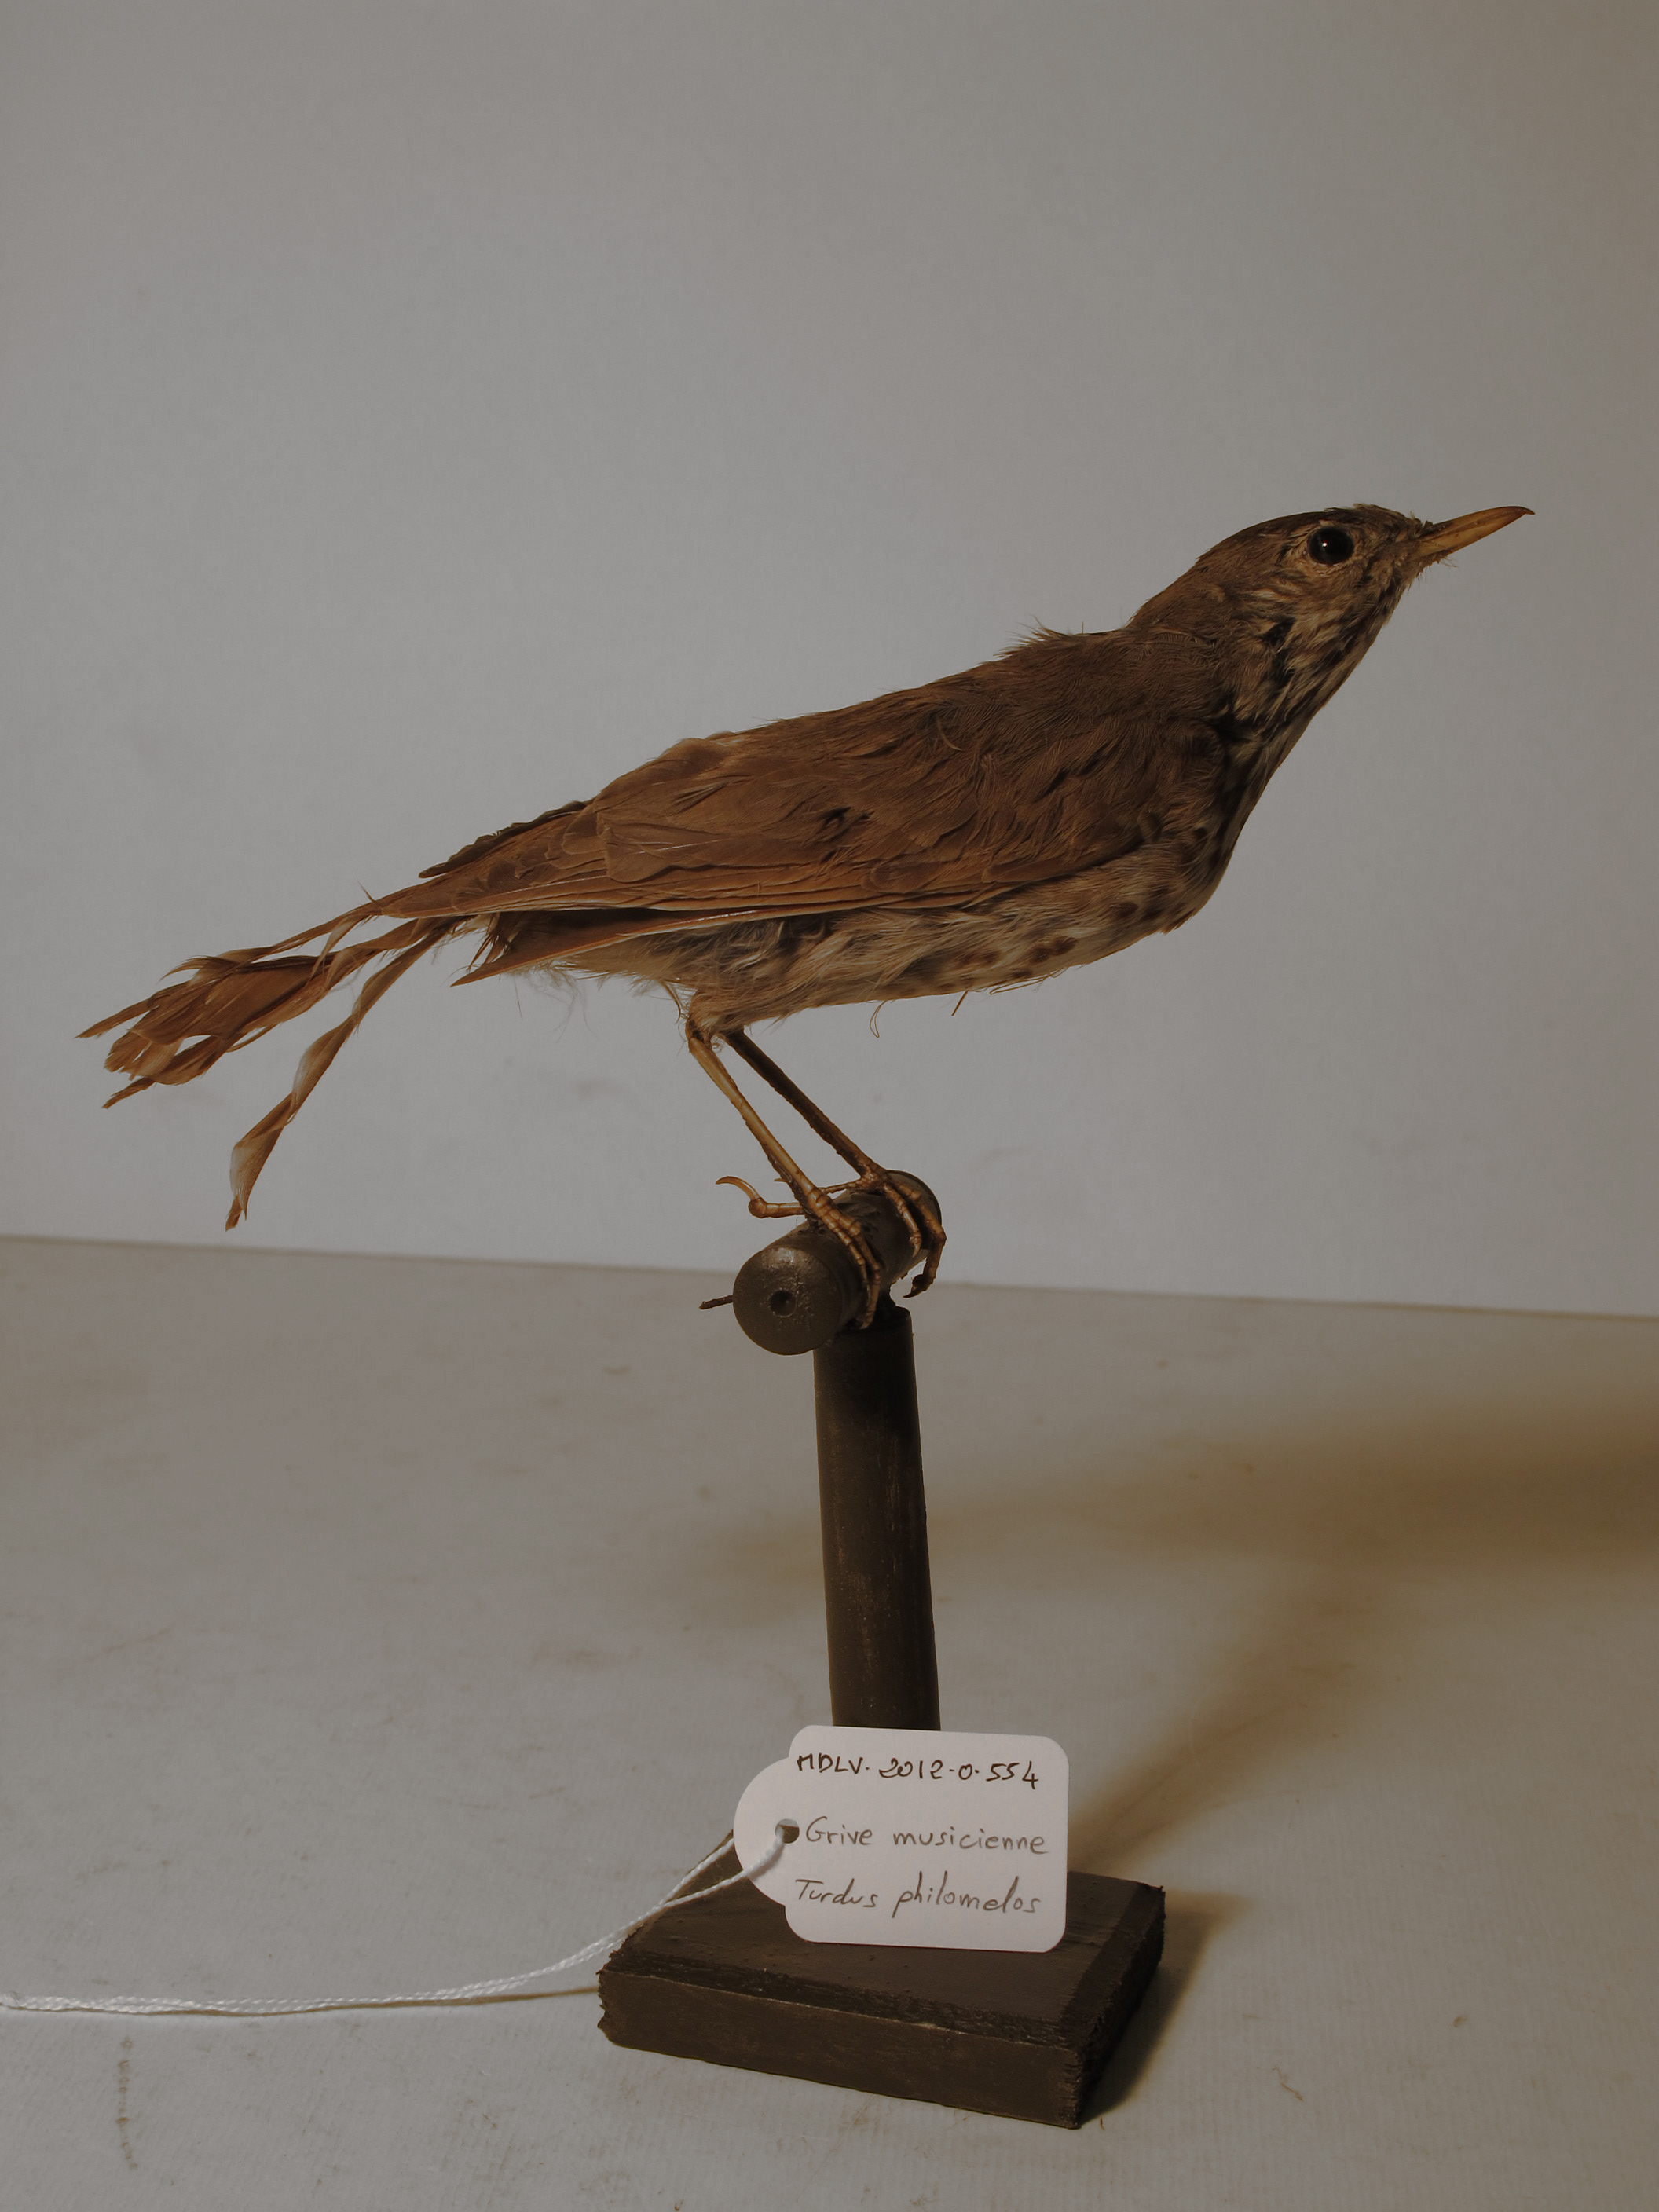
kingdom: Animalia
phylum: Chordata
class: Aves
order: Passeriformes
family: Turdidae
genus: Turdus
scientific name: Turdus philomelos
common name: Song Thrush
